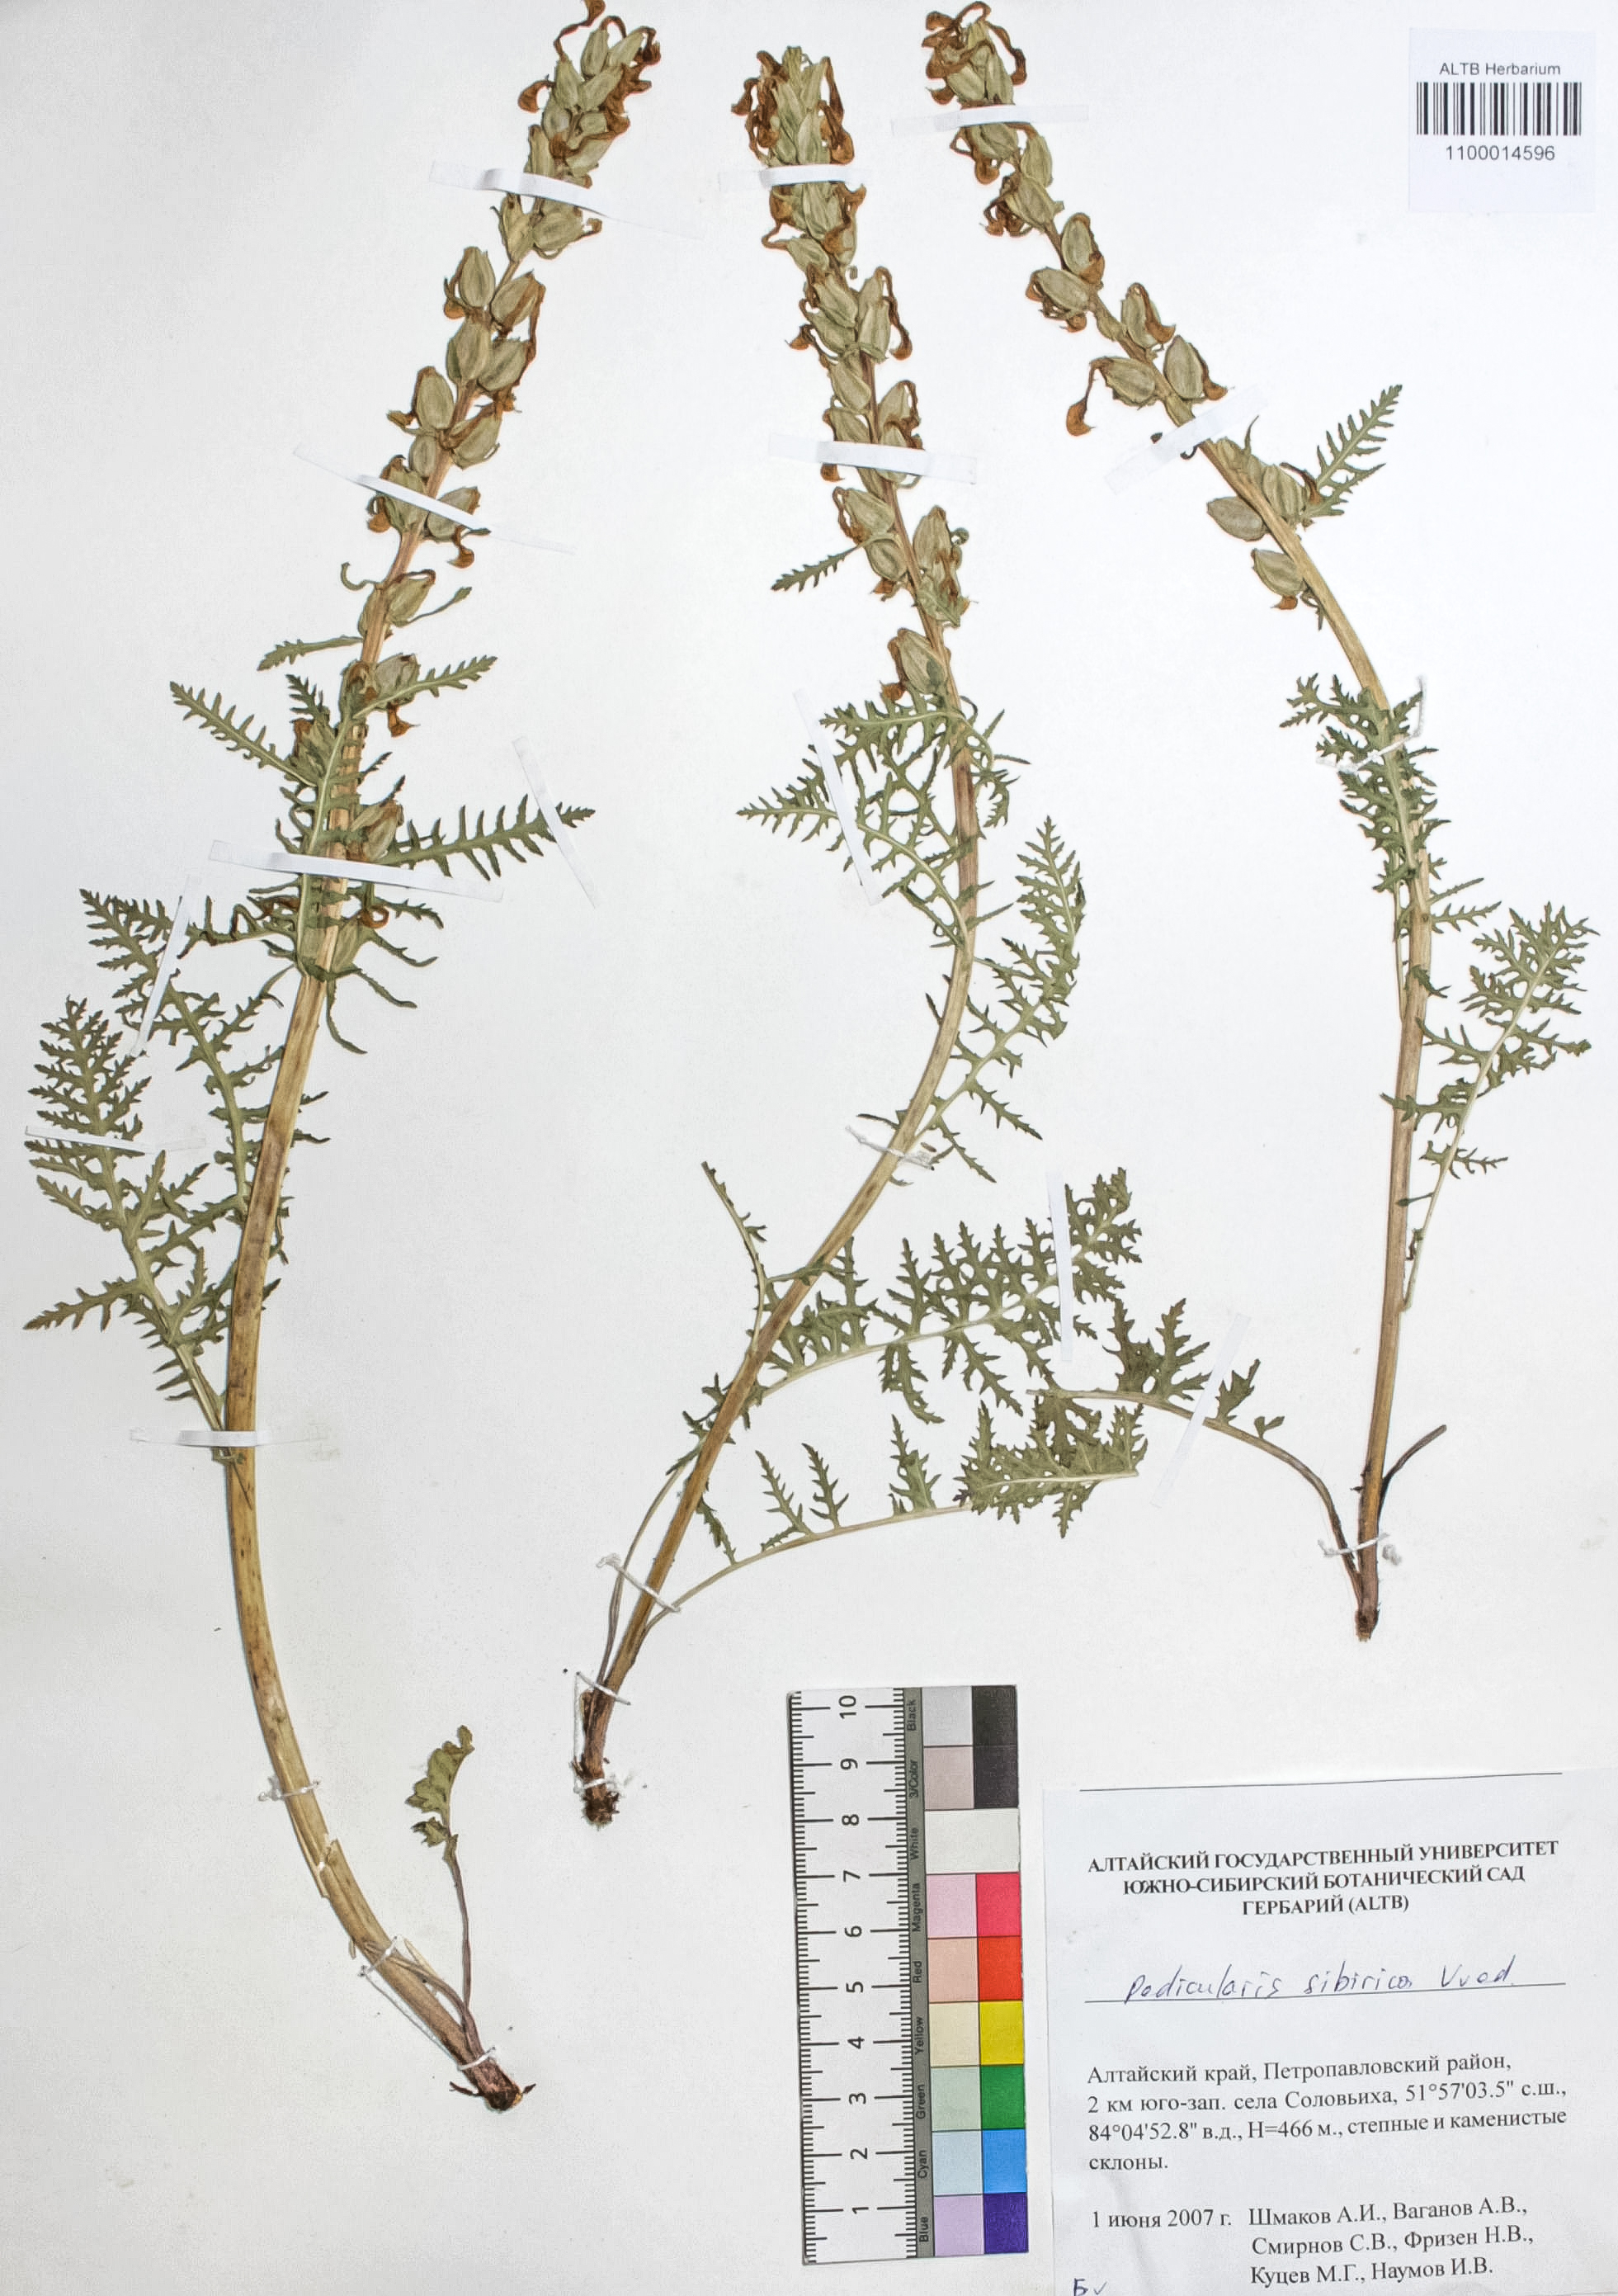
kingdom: Plantae
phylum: Tracheophyta
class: Magnoliopsida
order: Lamiales
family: Orobanchaceae
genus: Pedicularis
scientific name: Pedicularis sibirica
